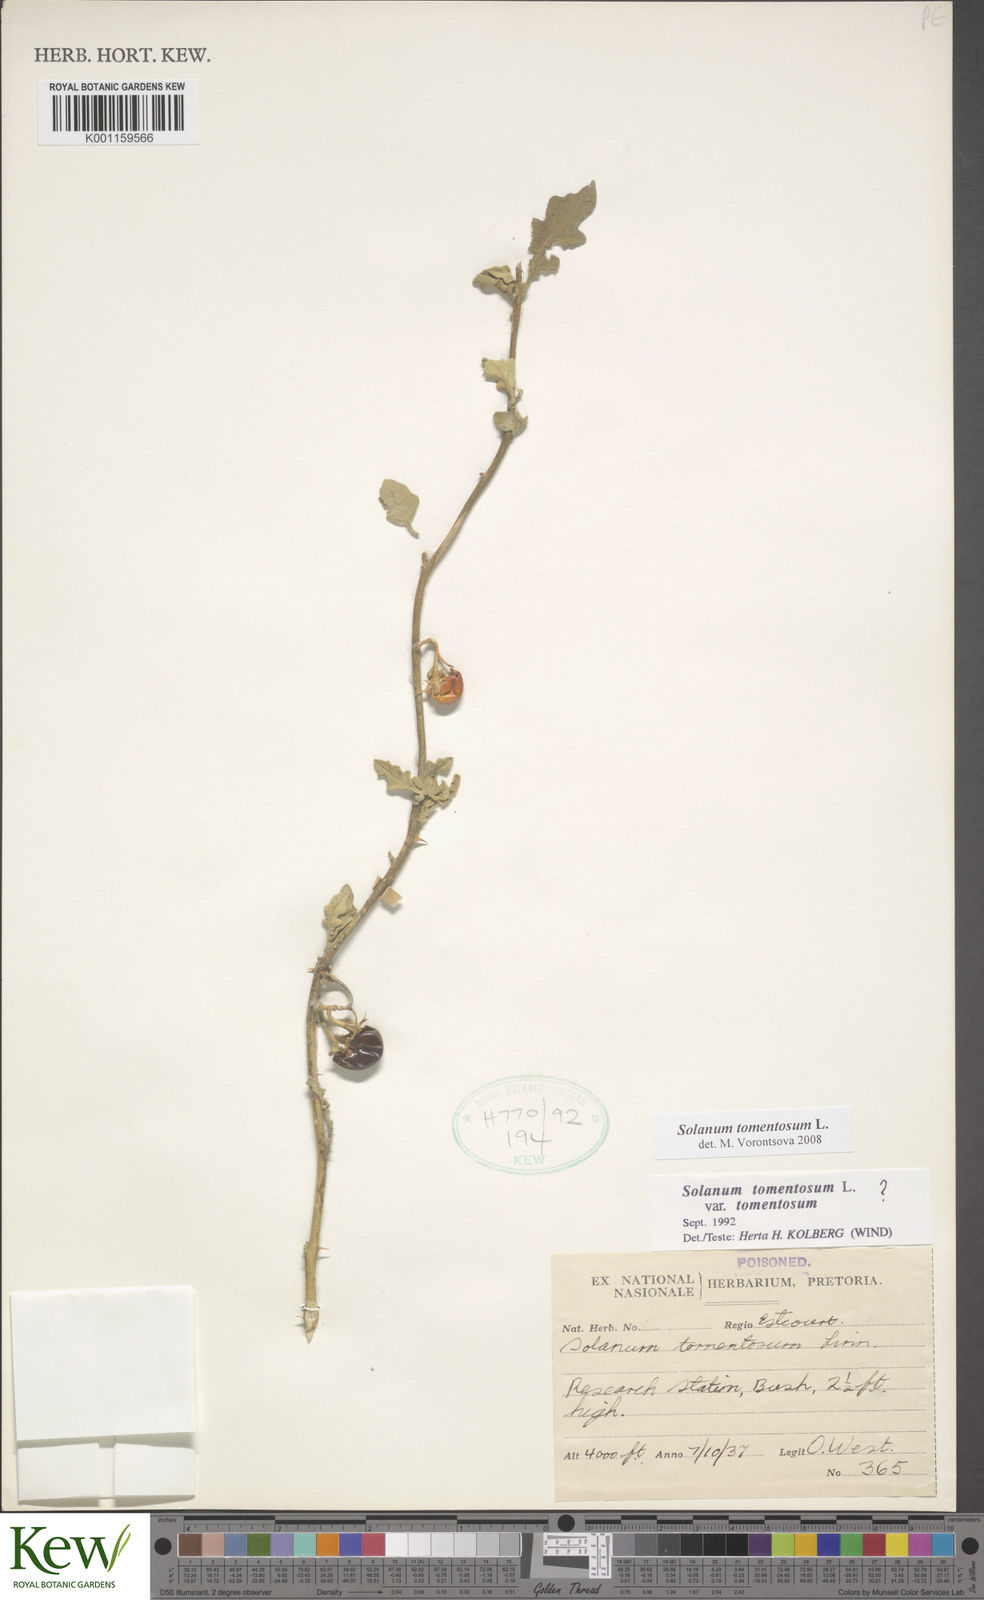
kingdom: Plantae
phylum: Tracheophyta
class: Magnoliopsida
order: Solanales
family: Solanaceae
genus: Solanum
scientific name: Solanum tomentosum
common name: Wild aubergine
